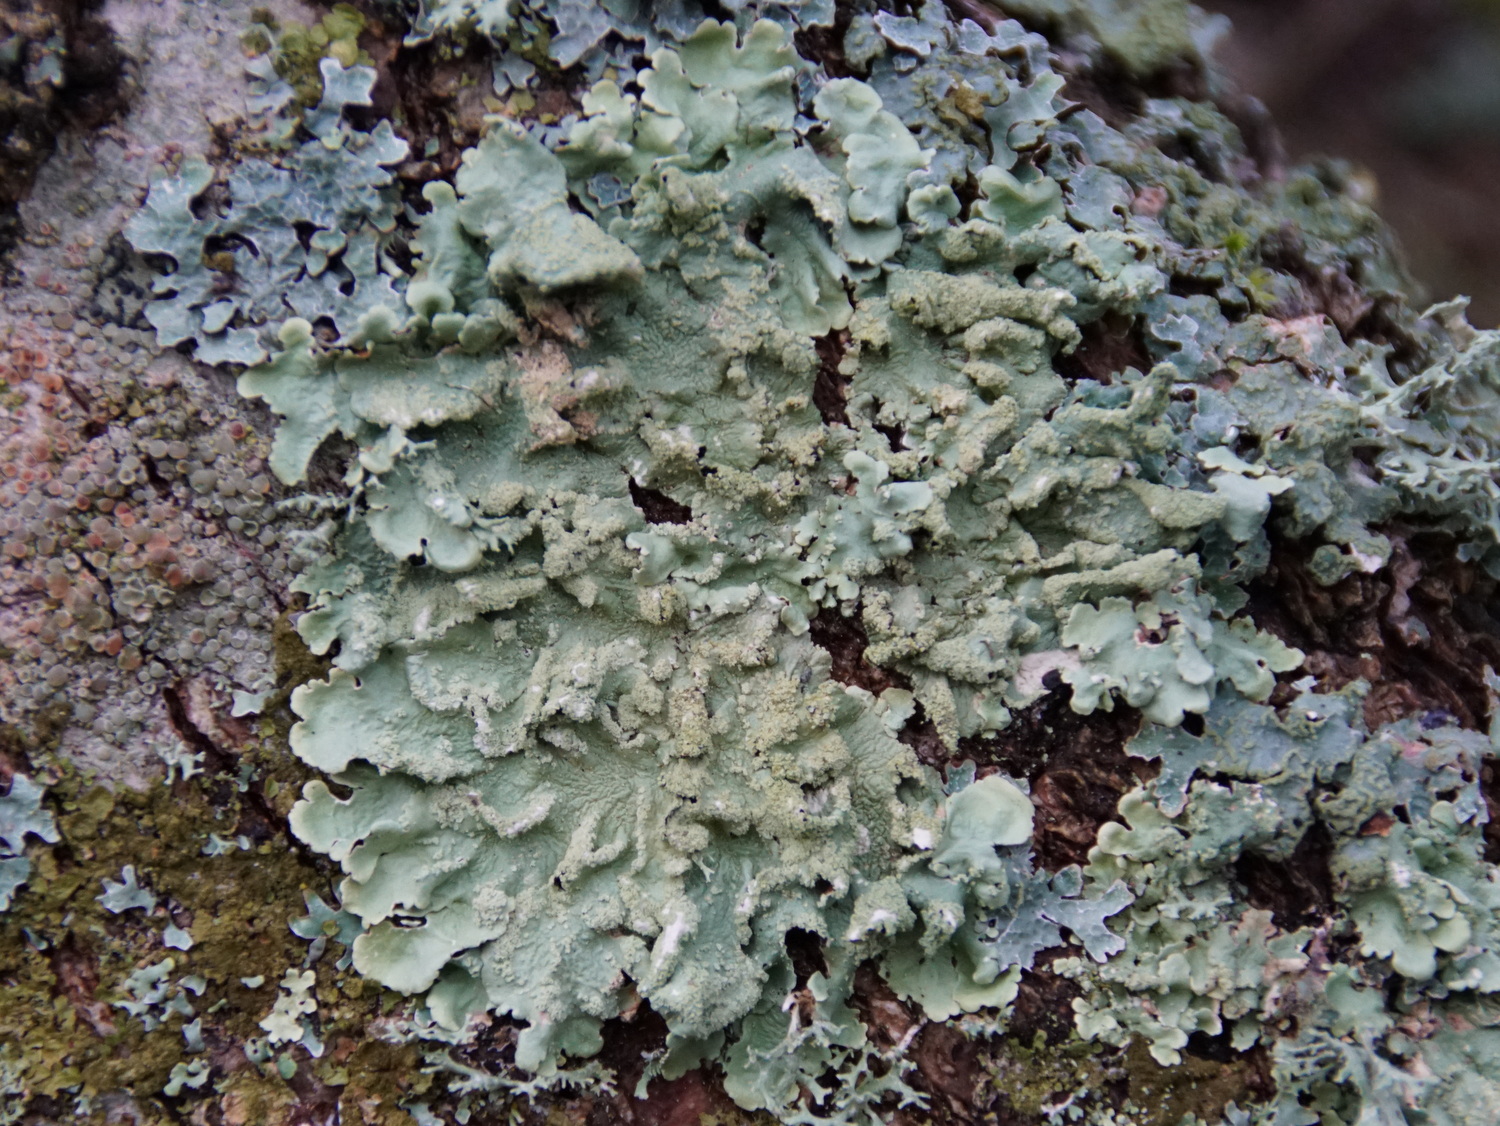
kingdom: Fungi
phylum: Ascomycota
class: Lecanoromycetes
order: Lecanorales
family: Parmeliaceae
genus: Flavoparmelia
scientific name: Flavoparmelia caperata
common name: gulgrøn skållav
